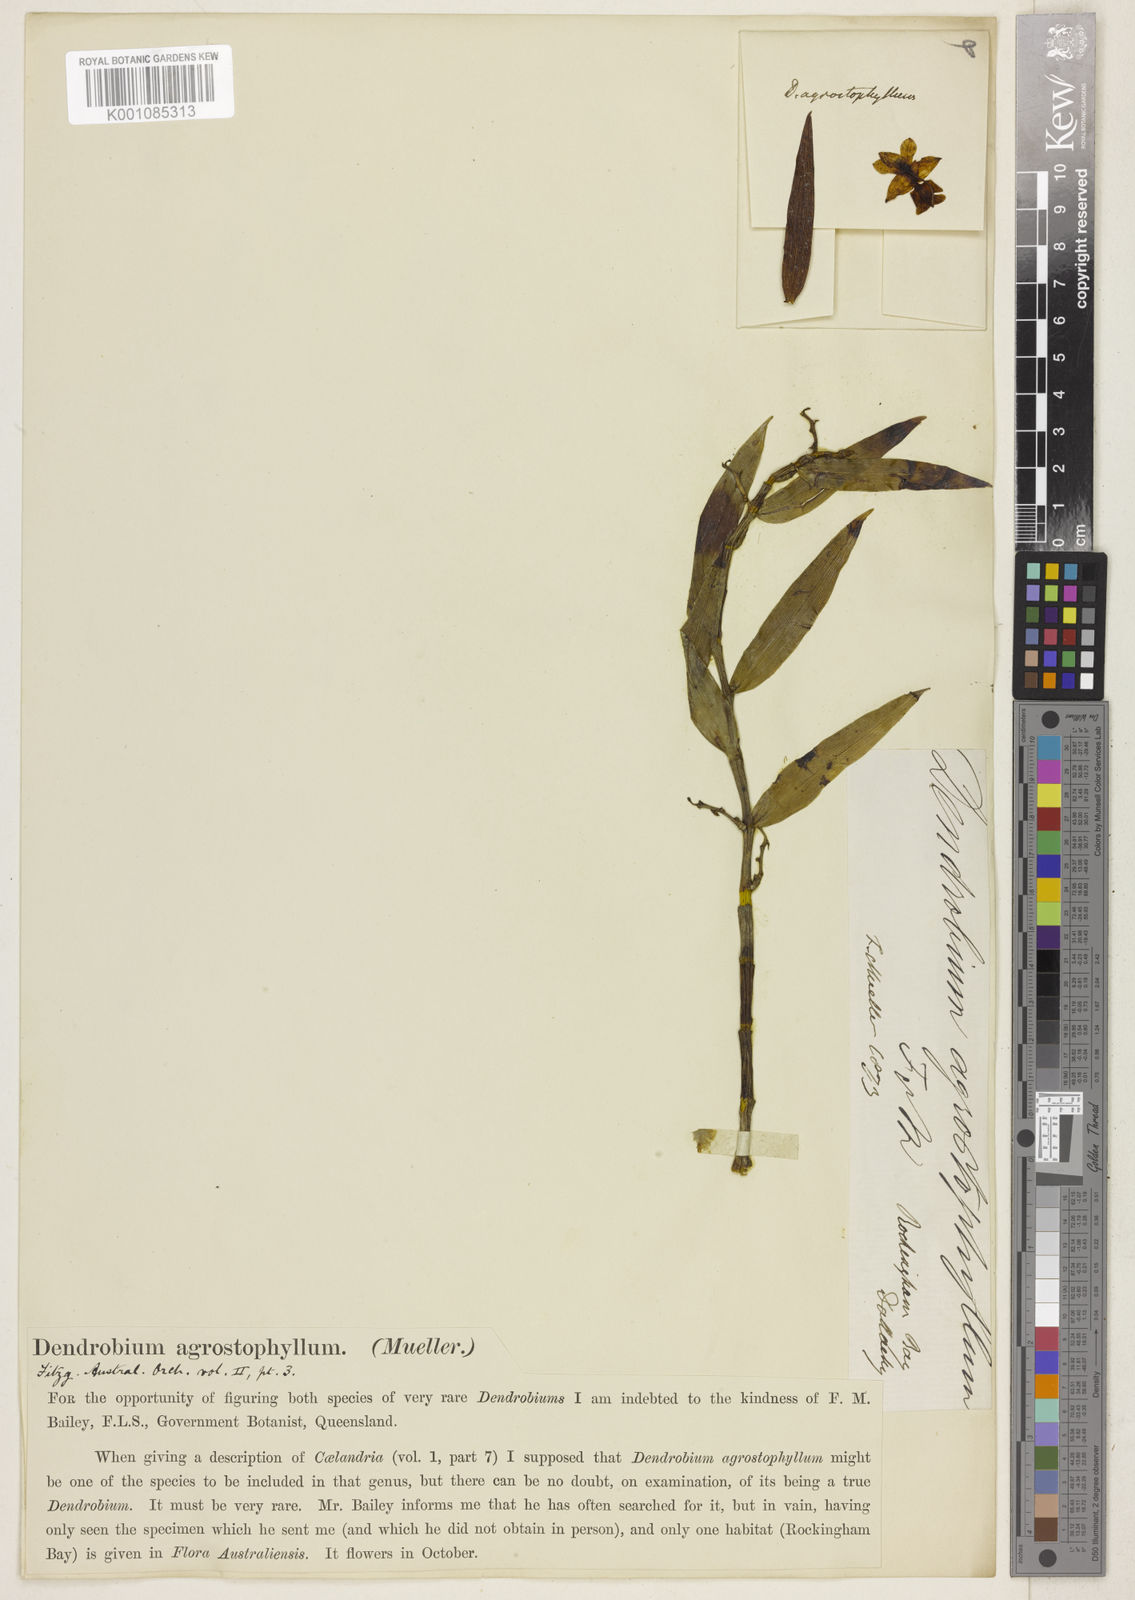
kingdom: Plantae
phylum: Tracheophyta
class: Liliopsida
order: Asparagales
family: Orchidaceae
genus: Dendrobium
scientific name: Dendrobium agrostophyllum
